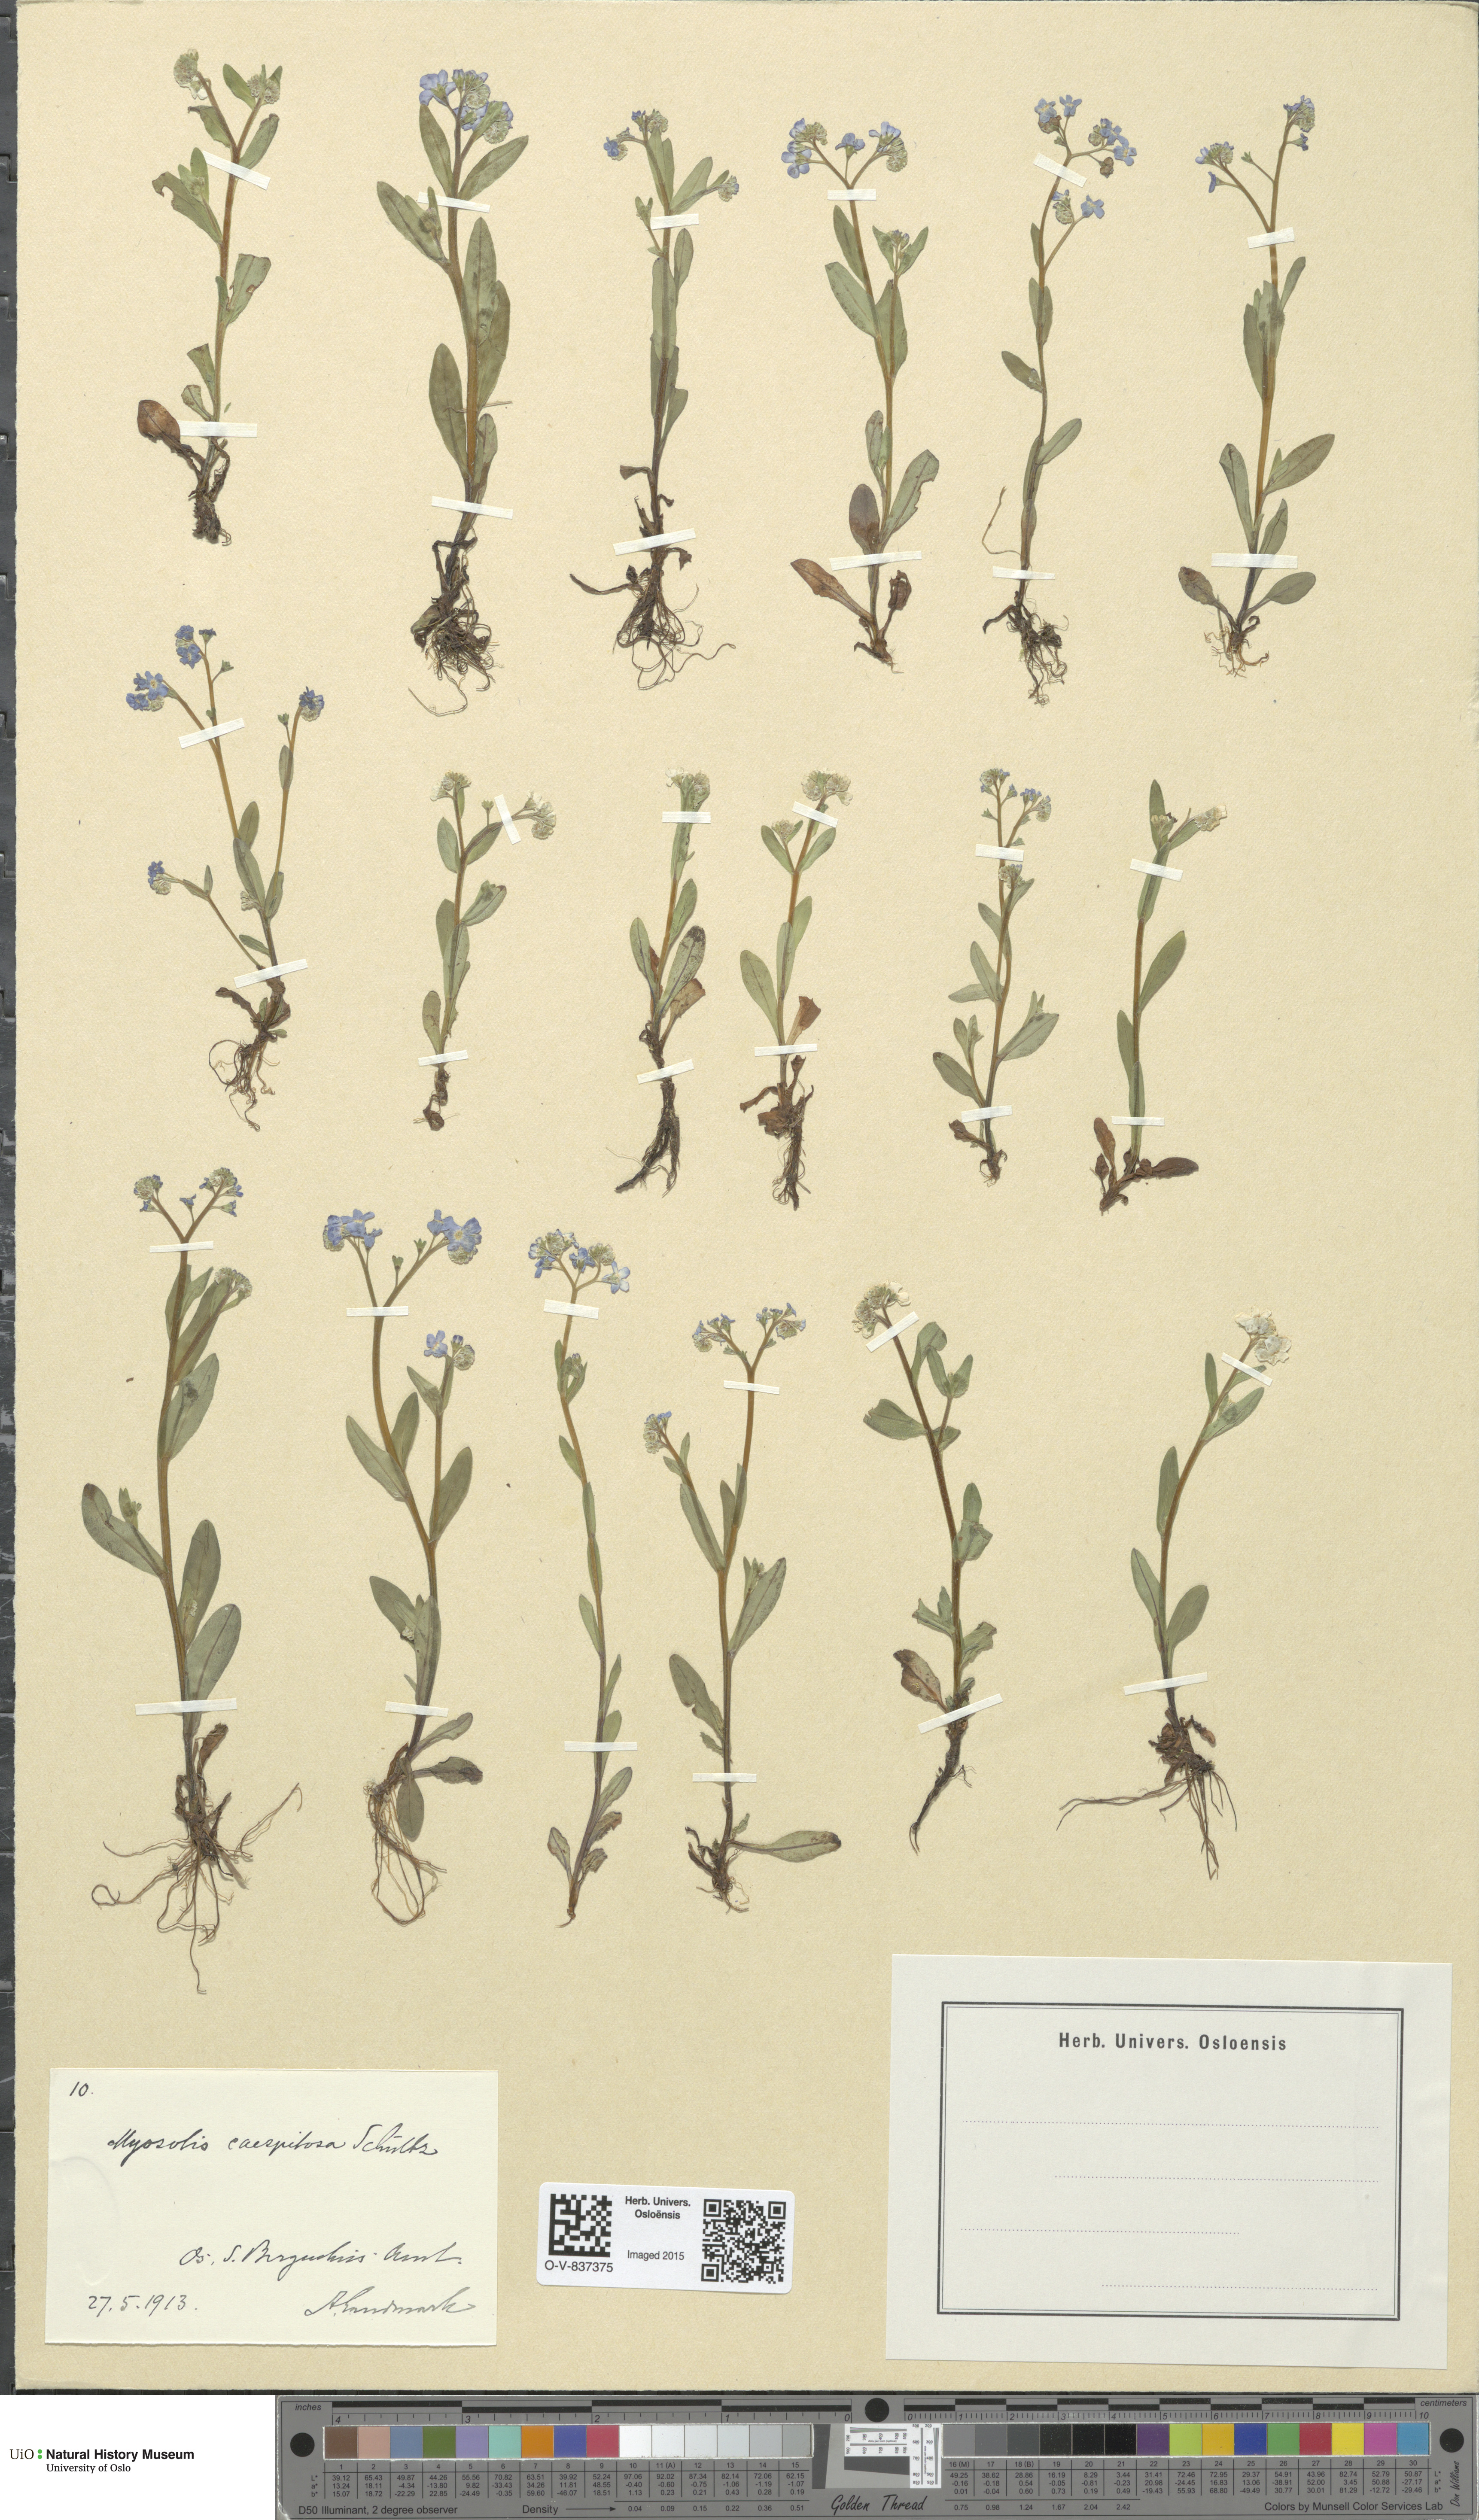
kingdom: Plantae
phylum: Tracheophyta
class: Magnoliopsida
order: Boraginales
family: Boraginaceae
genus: Myosotis
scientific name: Myosotis laxa
